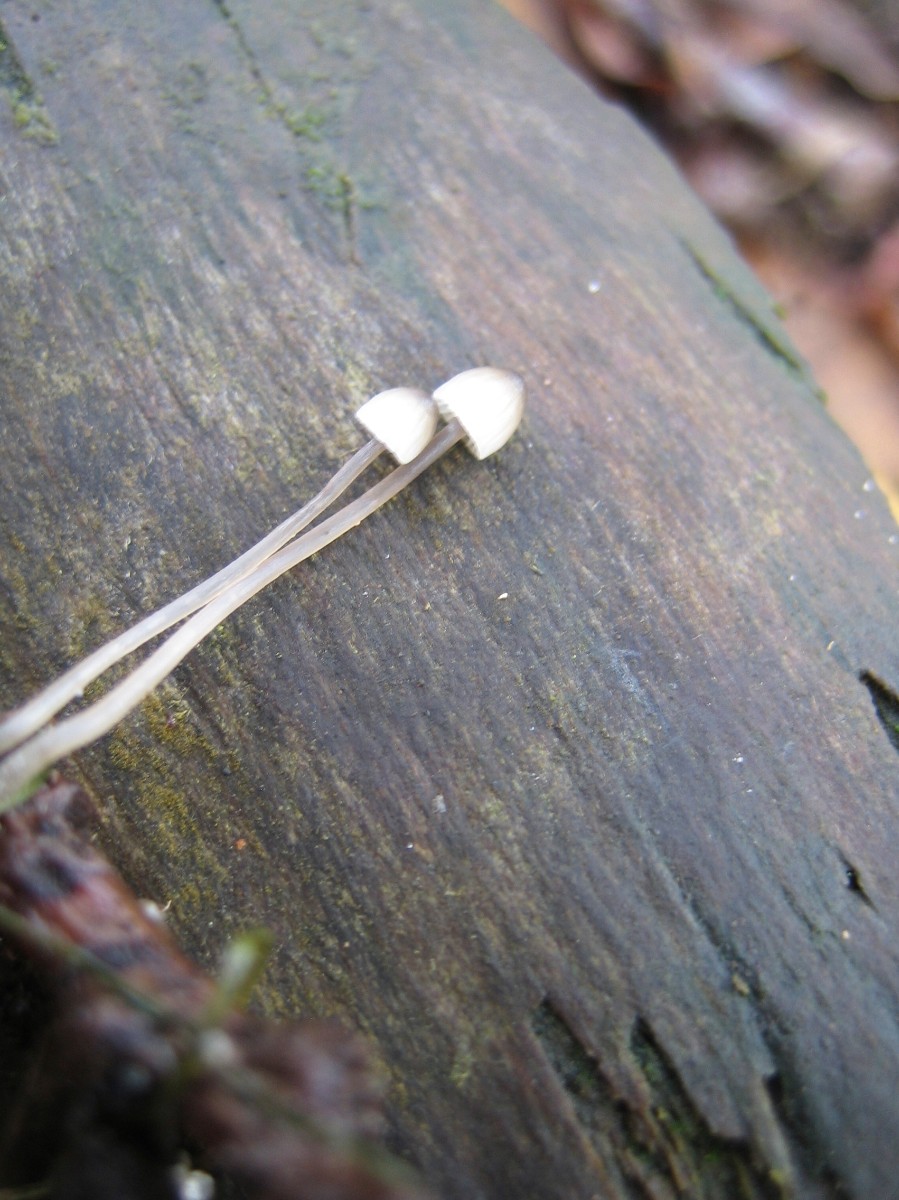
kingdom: Fungi
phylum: Basidiomycota
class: Agaricomycetes
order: Agaricales
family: Mycenaceae
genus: Mycena
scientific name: Mycena
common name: huesvamp
